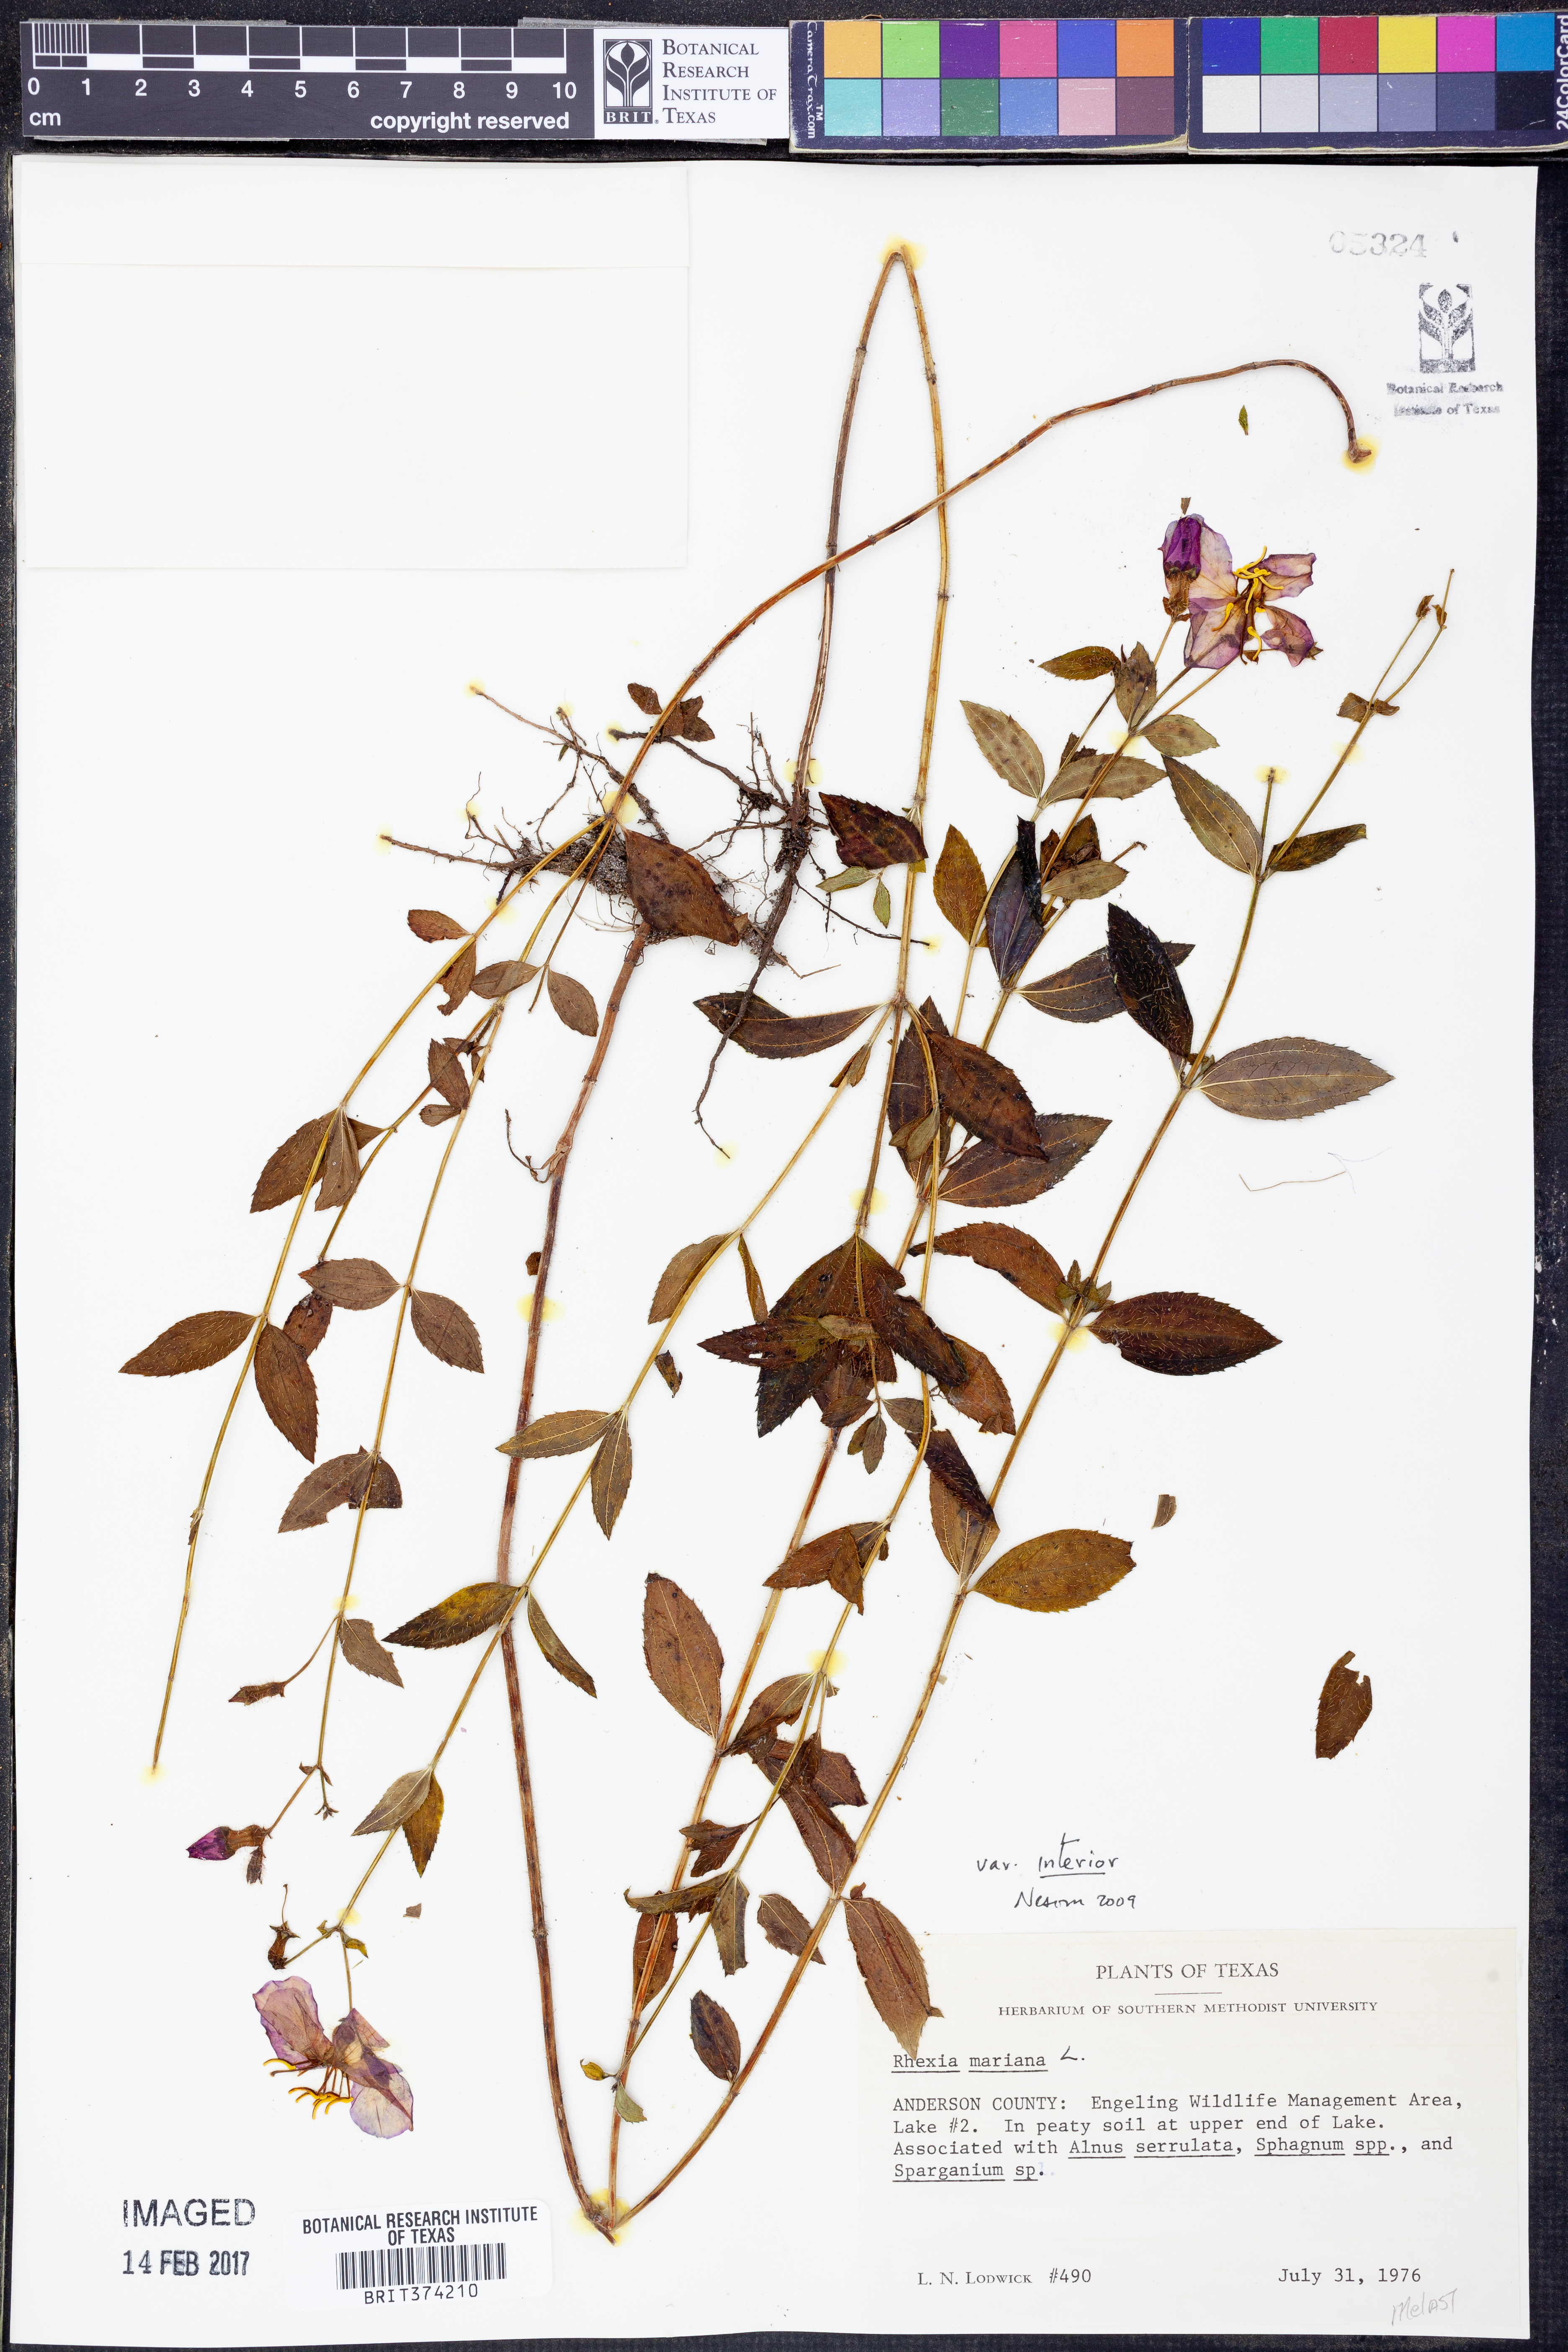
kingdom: Plantae
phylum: Tracheophyta
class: Magnoliopsida
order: Myrtales
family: Melastomataceae
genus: Rhexia
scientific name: Rhexia interior
